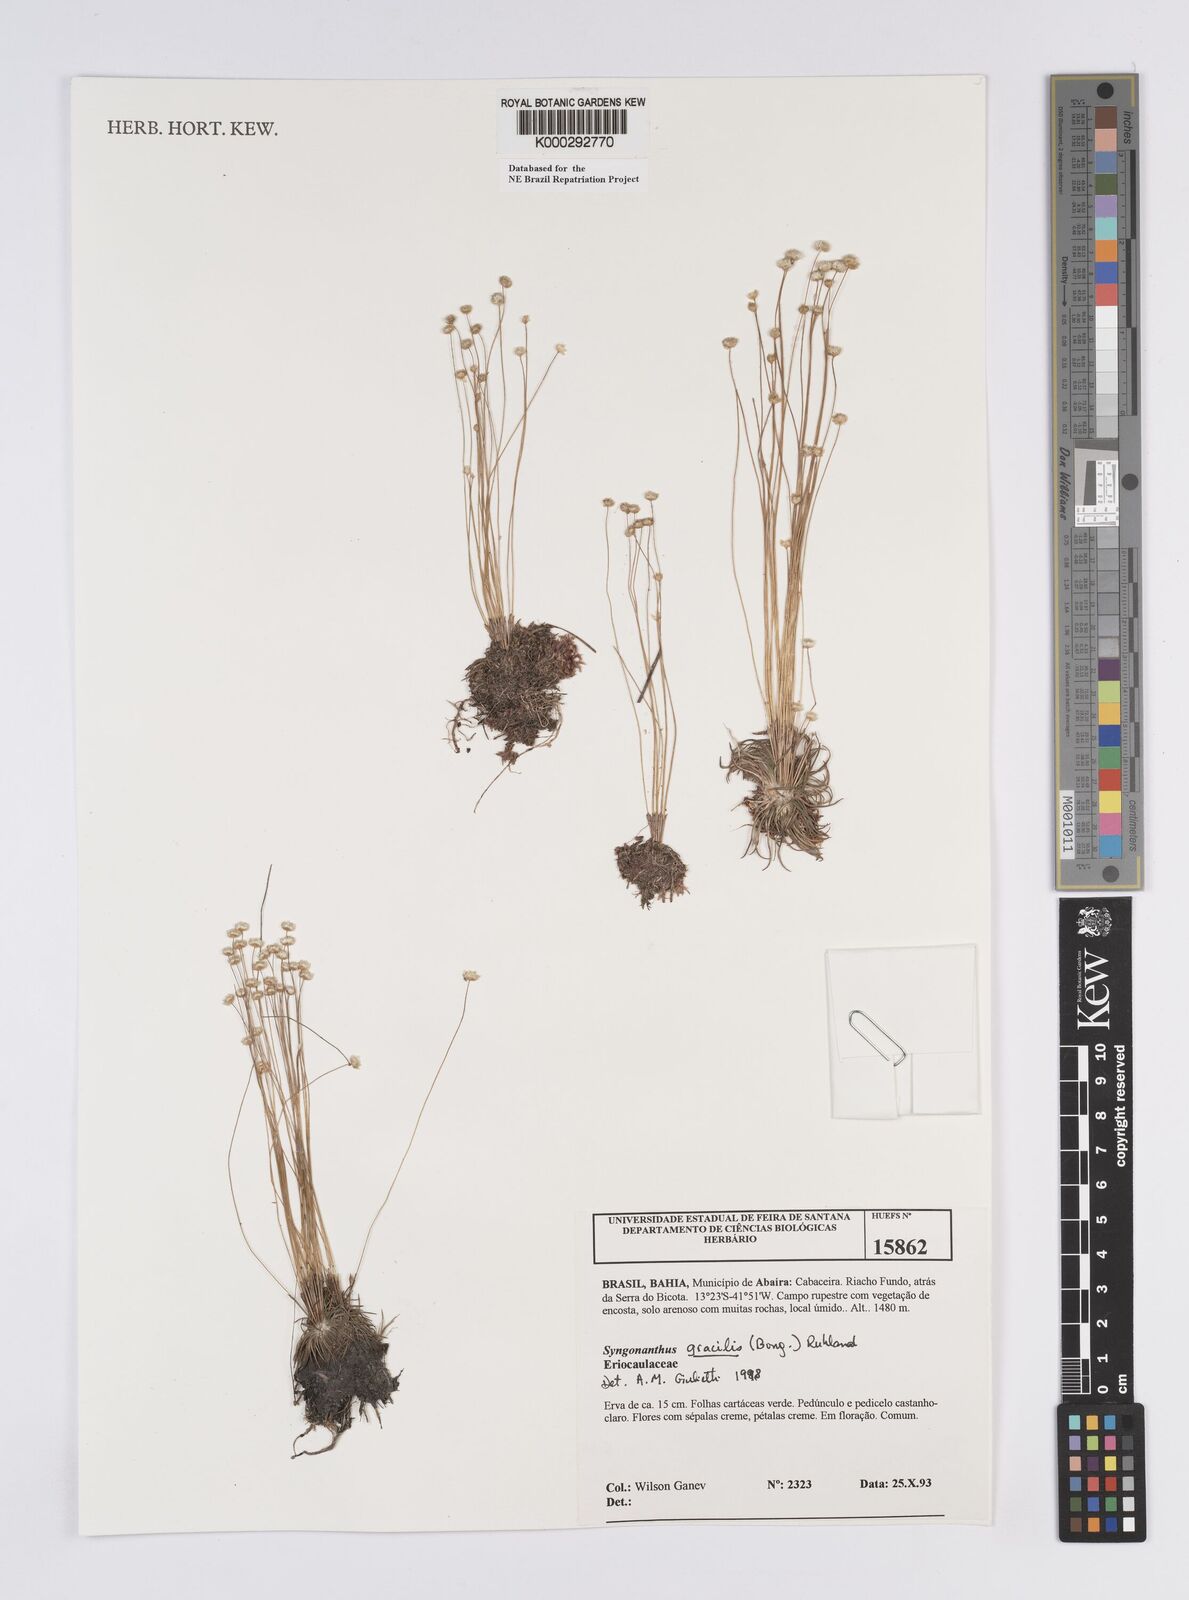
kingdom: Plantae
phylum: Tracheophyta
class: Liliopsida
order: Poales
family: Eriocaulaceae
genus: Syngonanthus
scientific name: Syngonanthus gracilis
